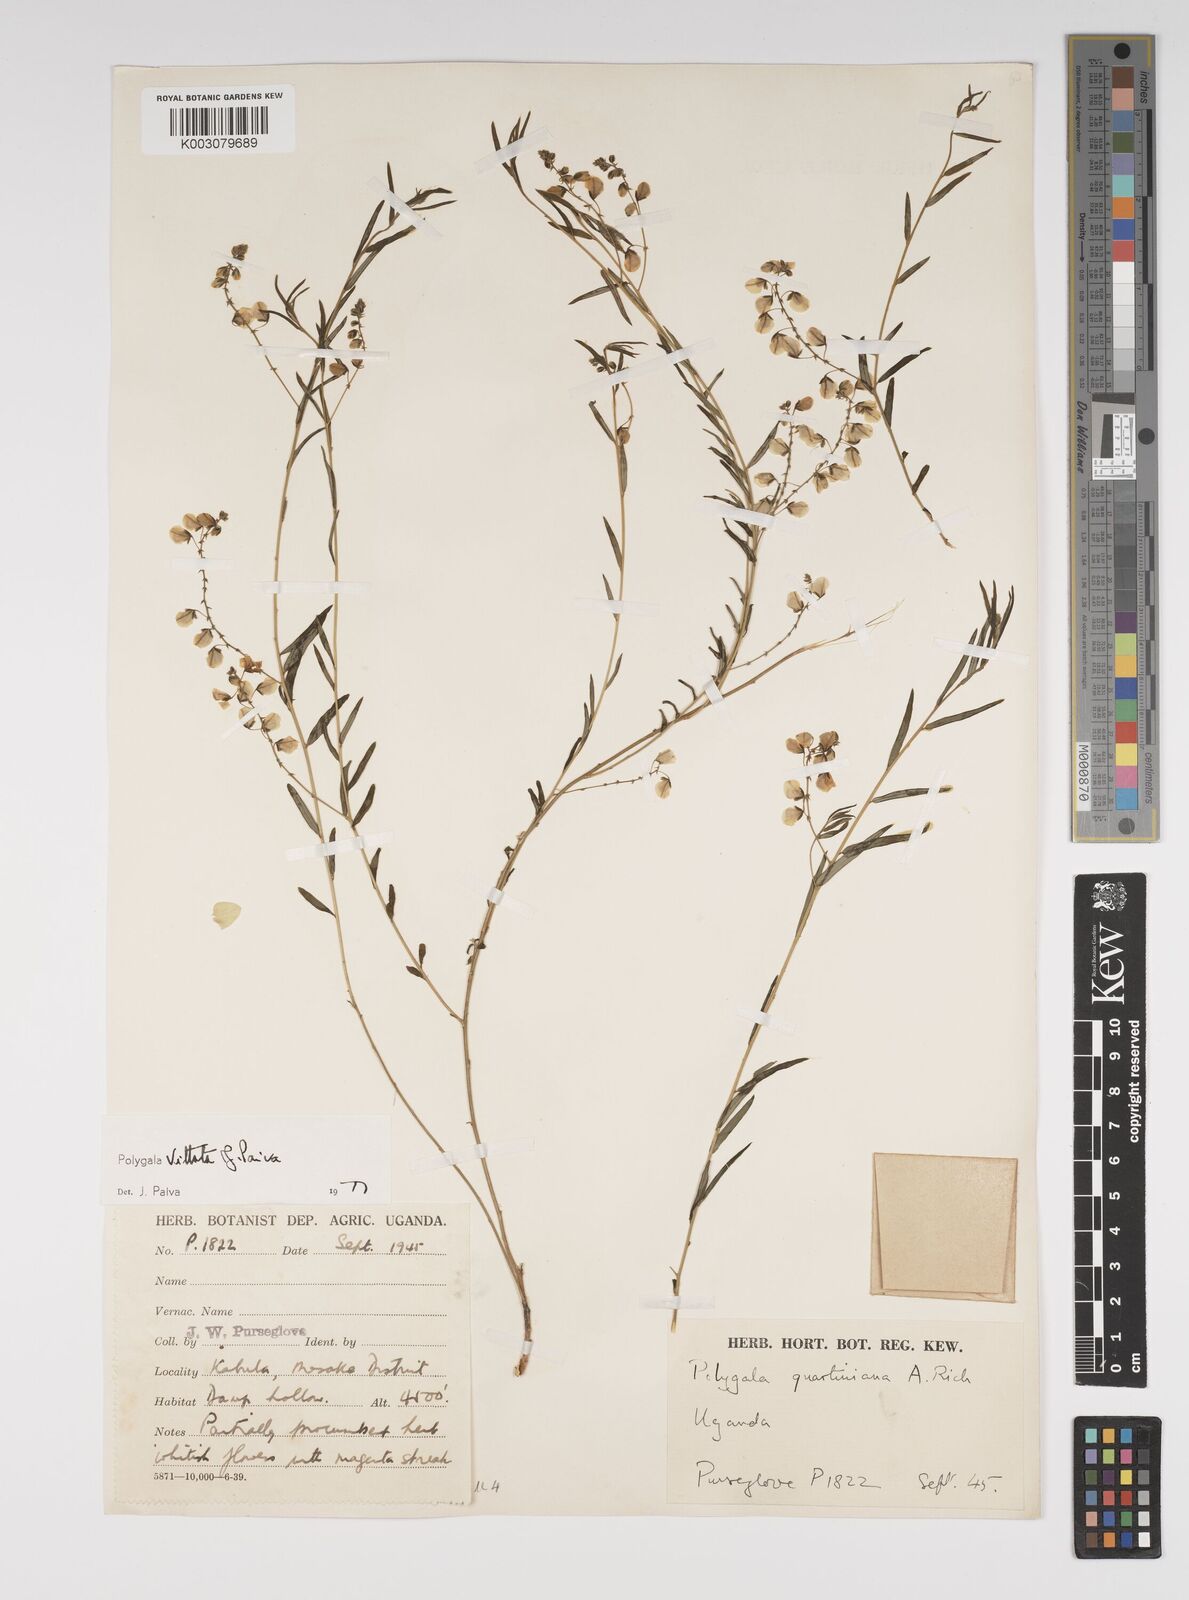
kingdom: Plantae
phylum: Tracheophyta
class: Magnoliopsida
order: Fabales
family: Polygalaceae
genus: Polygala
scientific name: Polygala vittata
